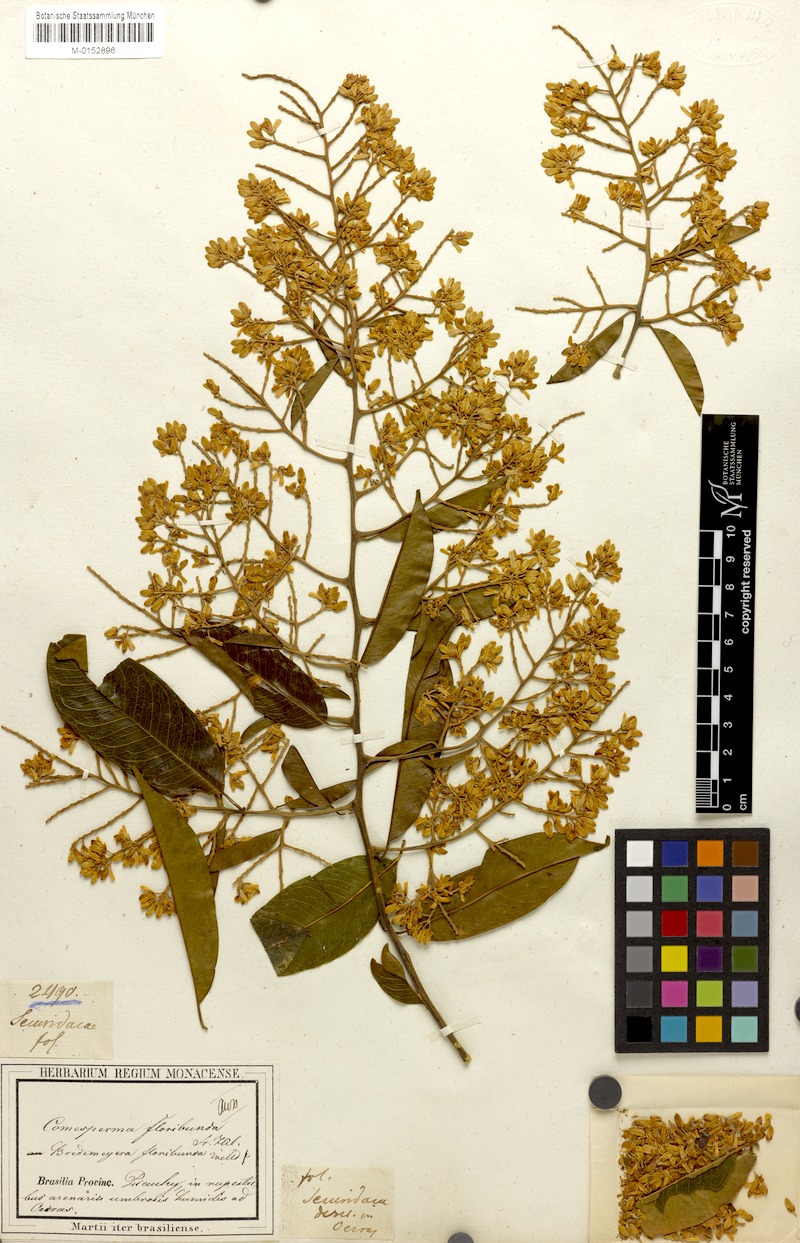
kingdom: Plantae
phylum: Tracheophyta
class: Magnoliopsida
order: Fabales
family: Polygalaceae
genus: Bredemeyera
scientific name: Bredemeyera floribunda
